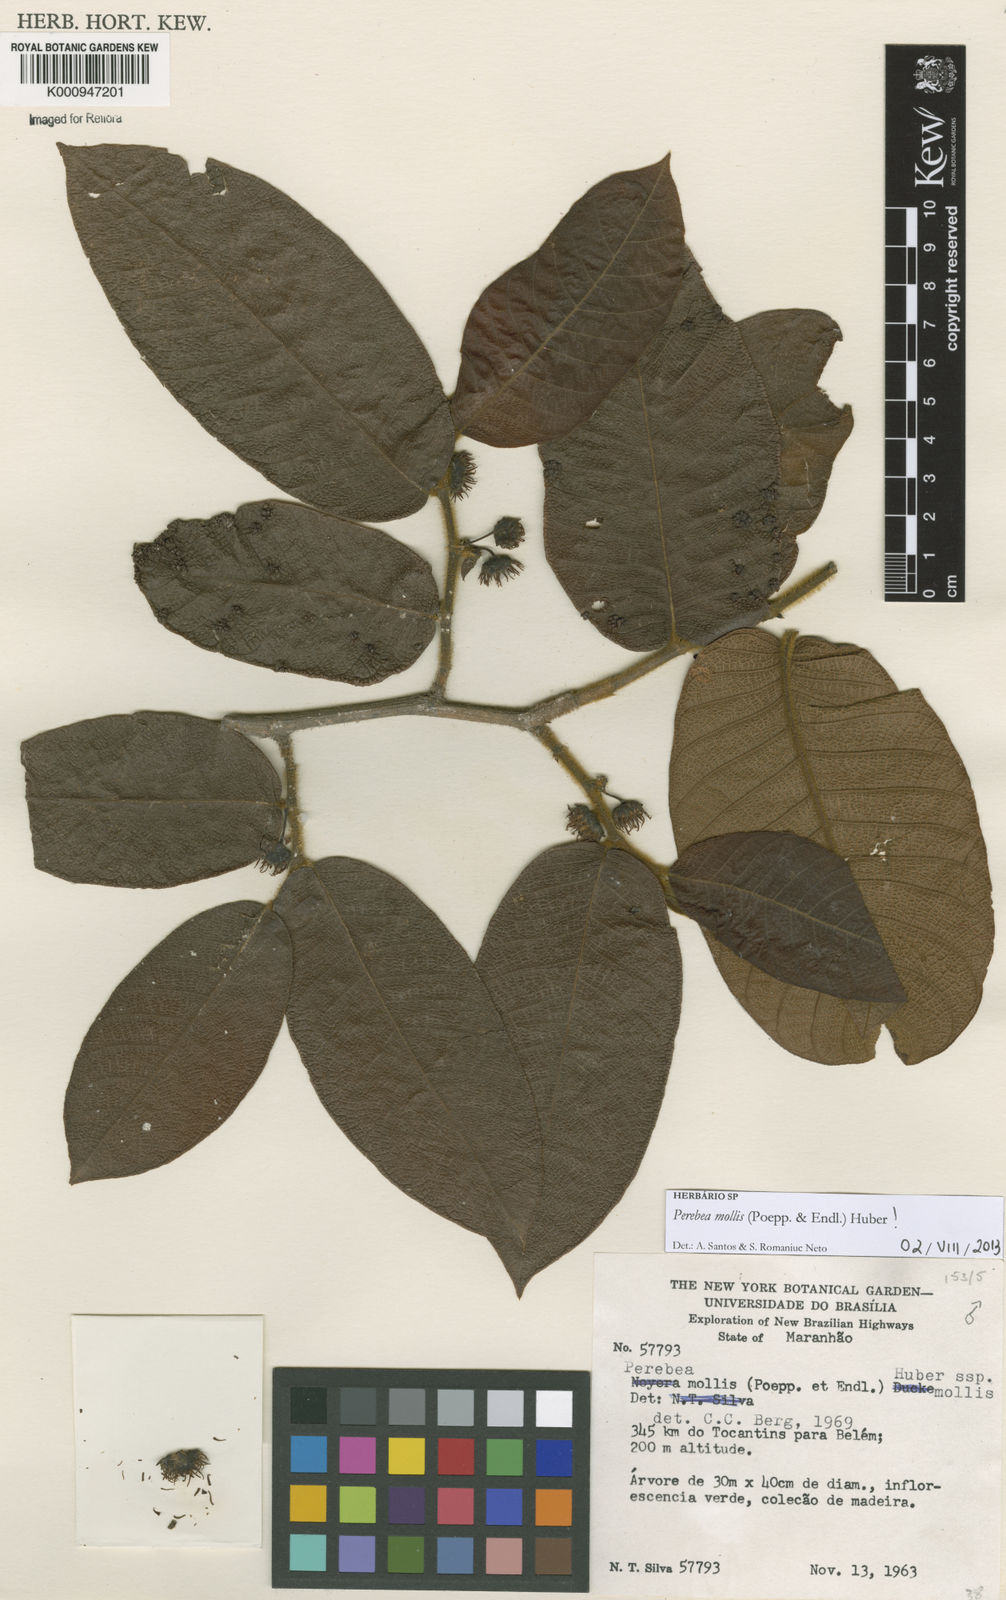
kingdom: Plantae
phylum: Tracheophyta
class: Magnoliopsida
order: Rosales
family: Moraceae
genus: Perebea
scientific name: Perebea mollis
